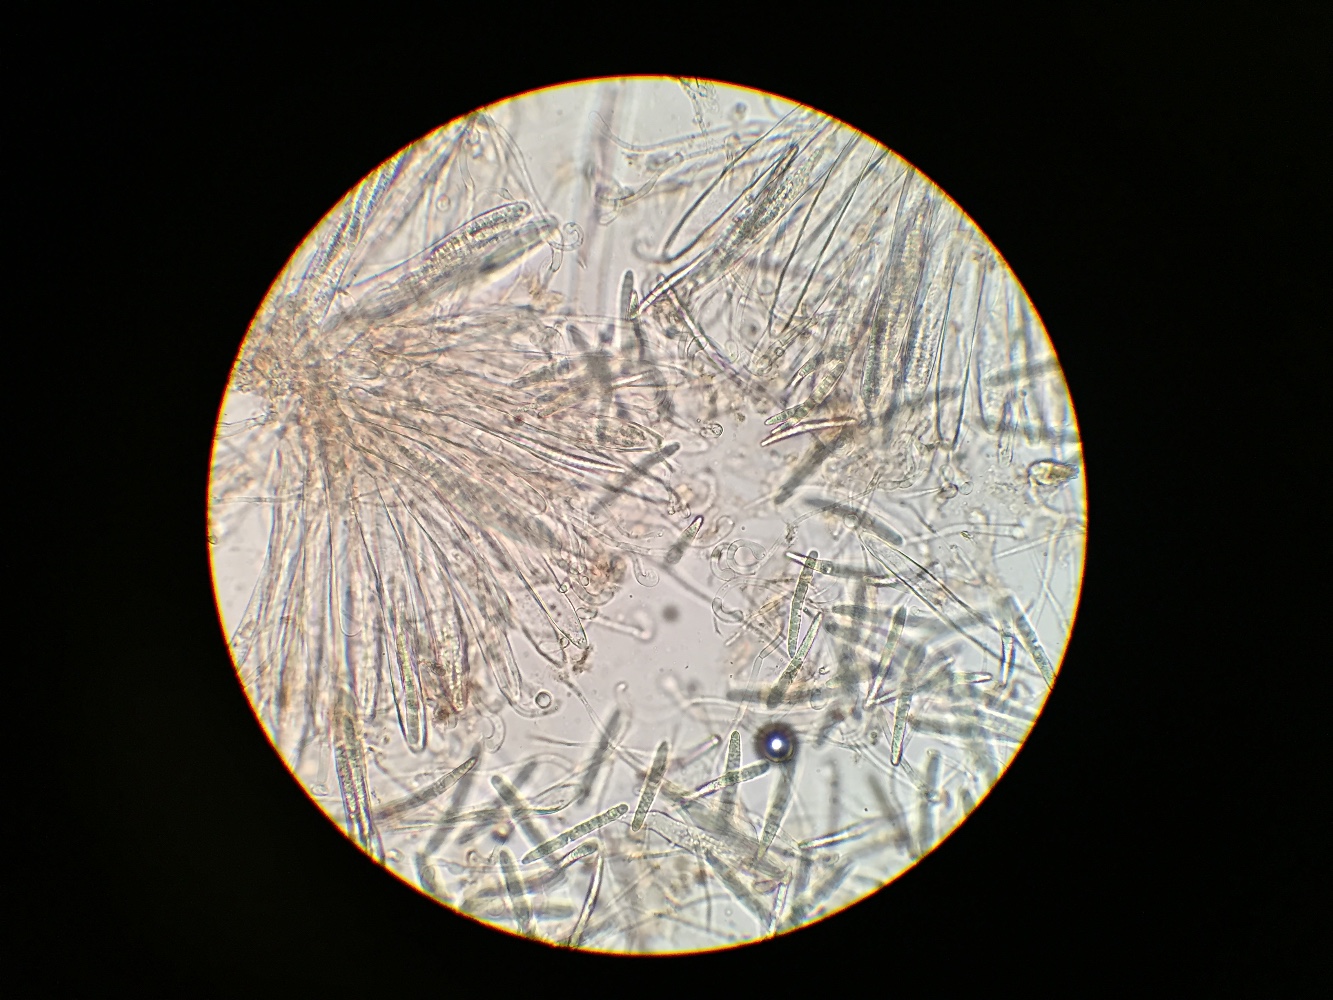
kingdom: Fungi
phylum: Ascomycota
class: Geoglossomycetes
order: Geoglossales
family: Geoglossaceae
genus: Geoglossum
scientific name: Geoglossum
